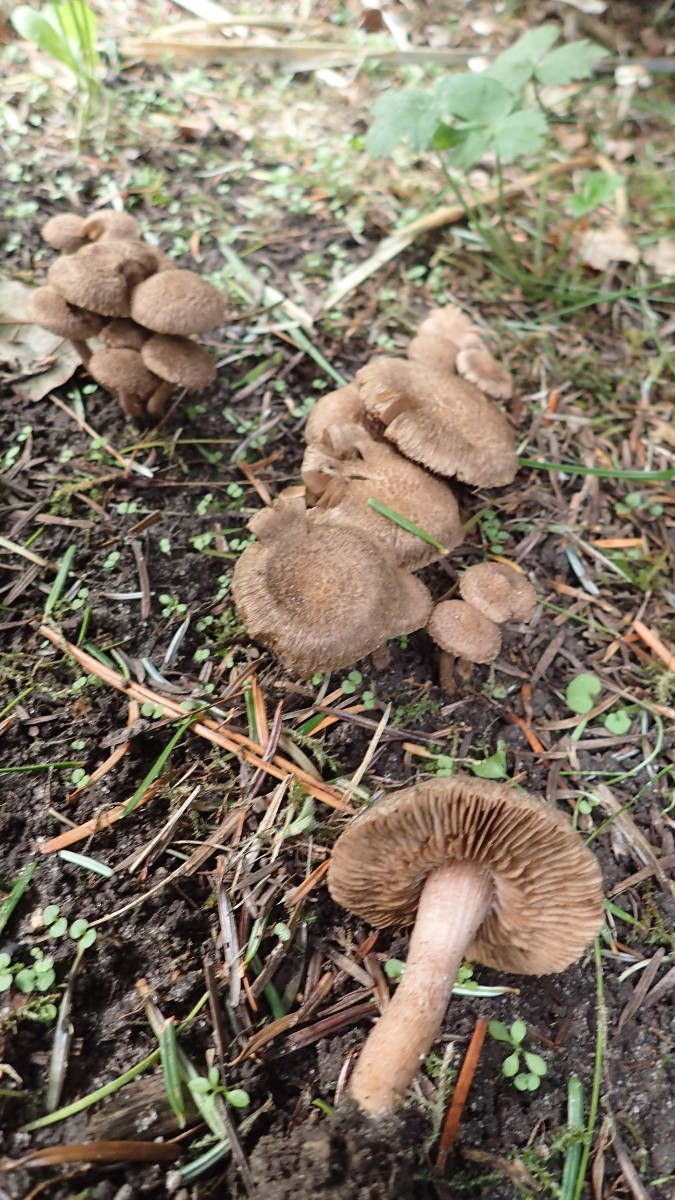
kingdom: Fungi
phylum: Basidiomycota
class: Agaricomycetes
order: Agaricales
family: Inocybaceae
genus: Inocybe
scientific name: Inocybe
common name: trævlhat
